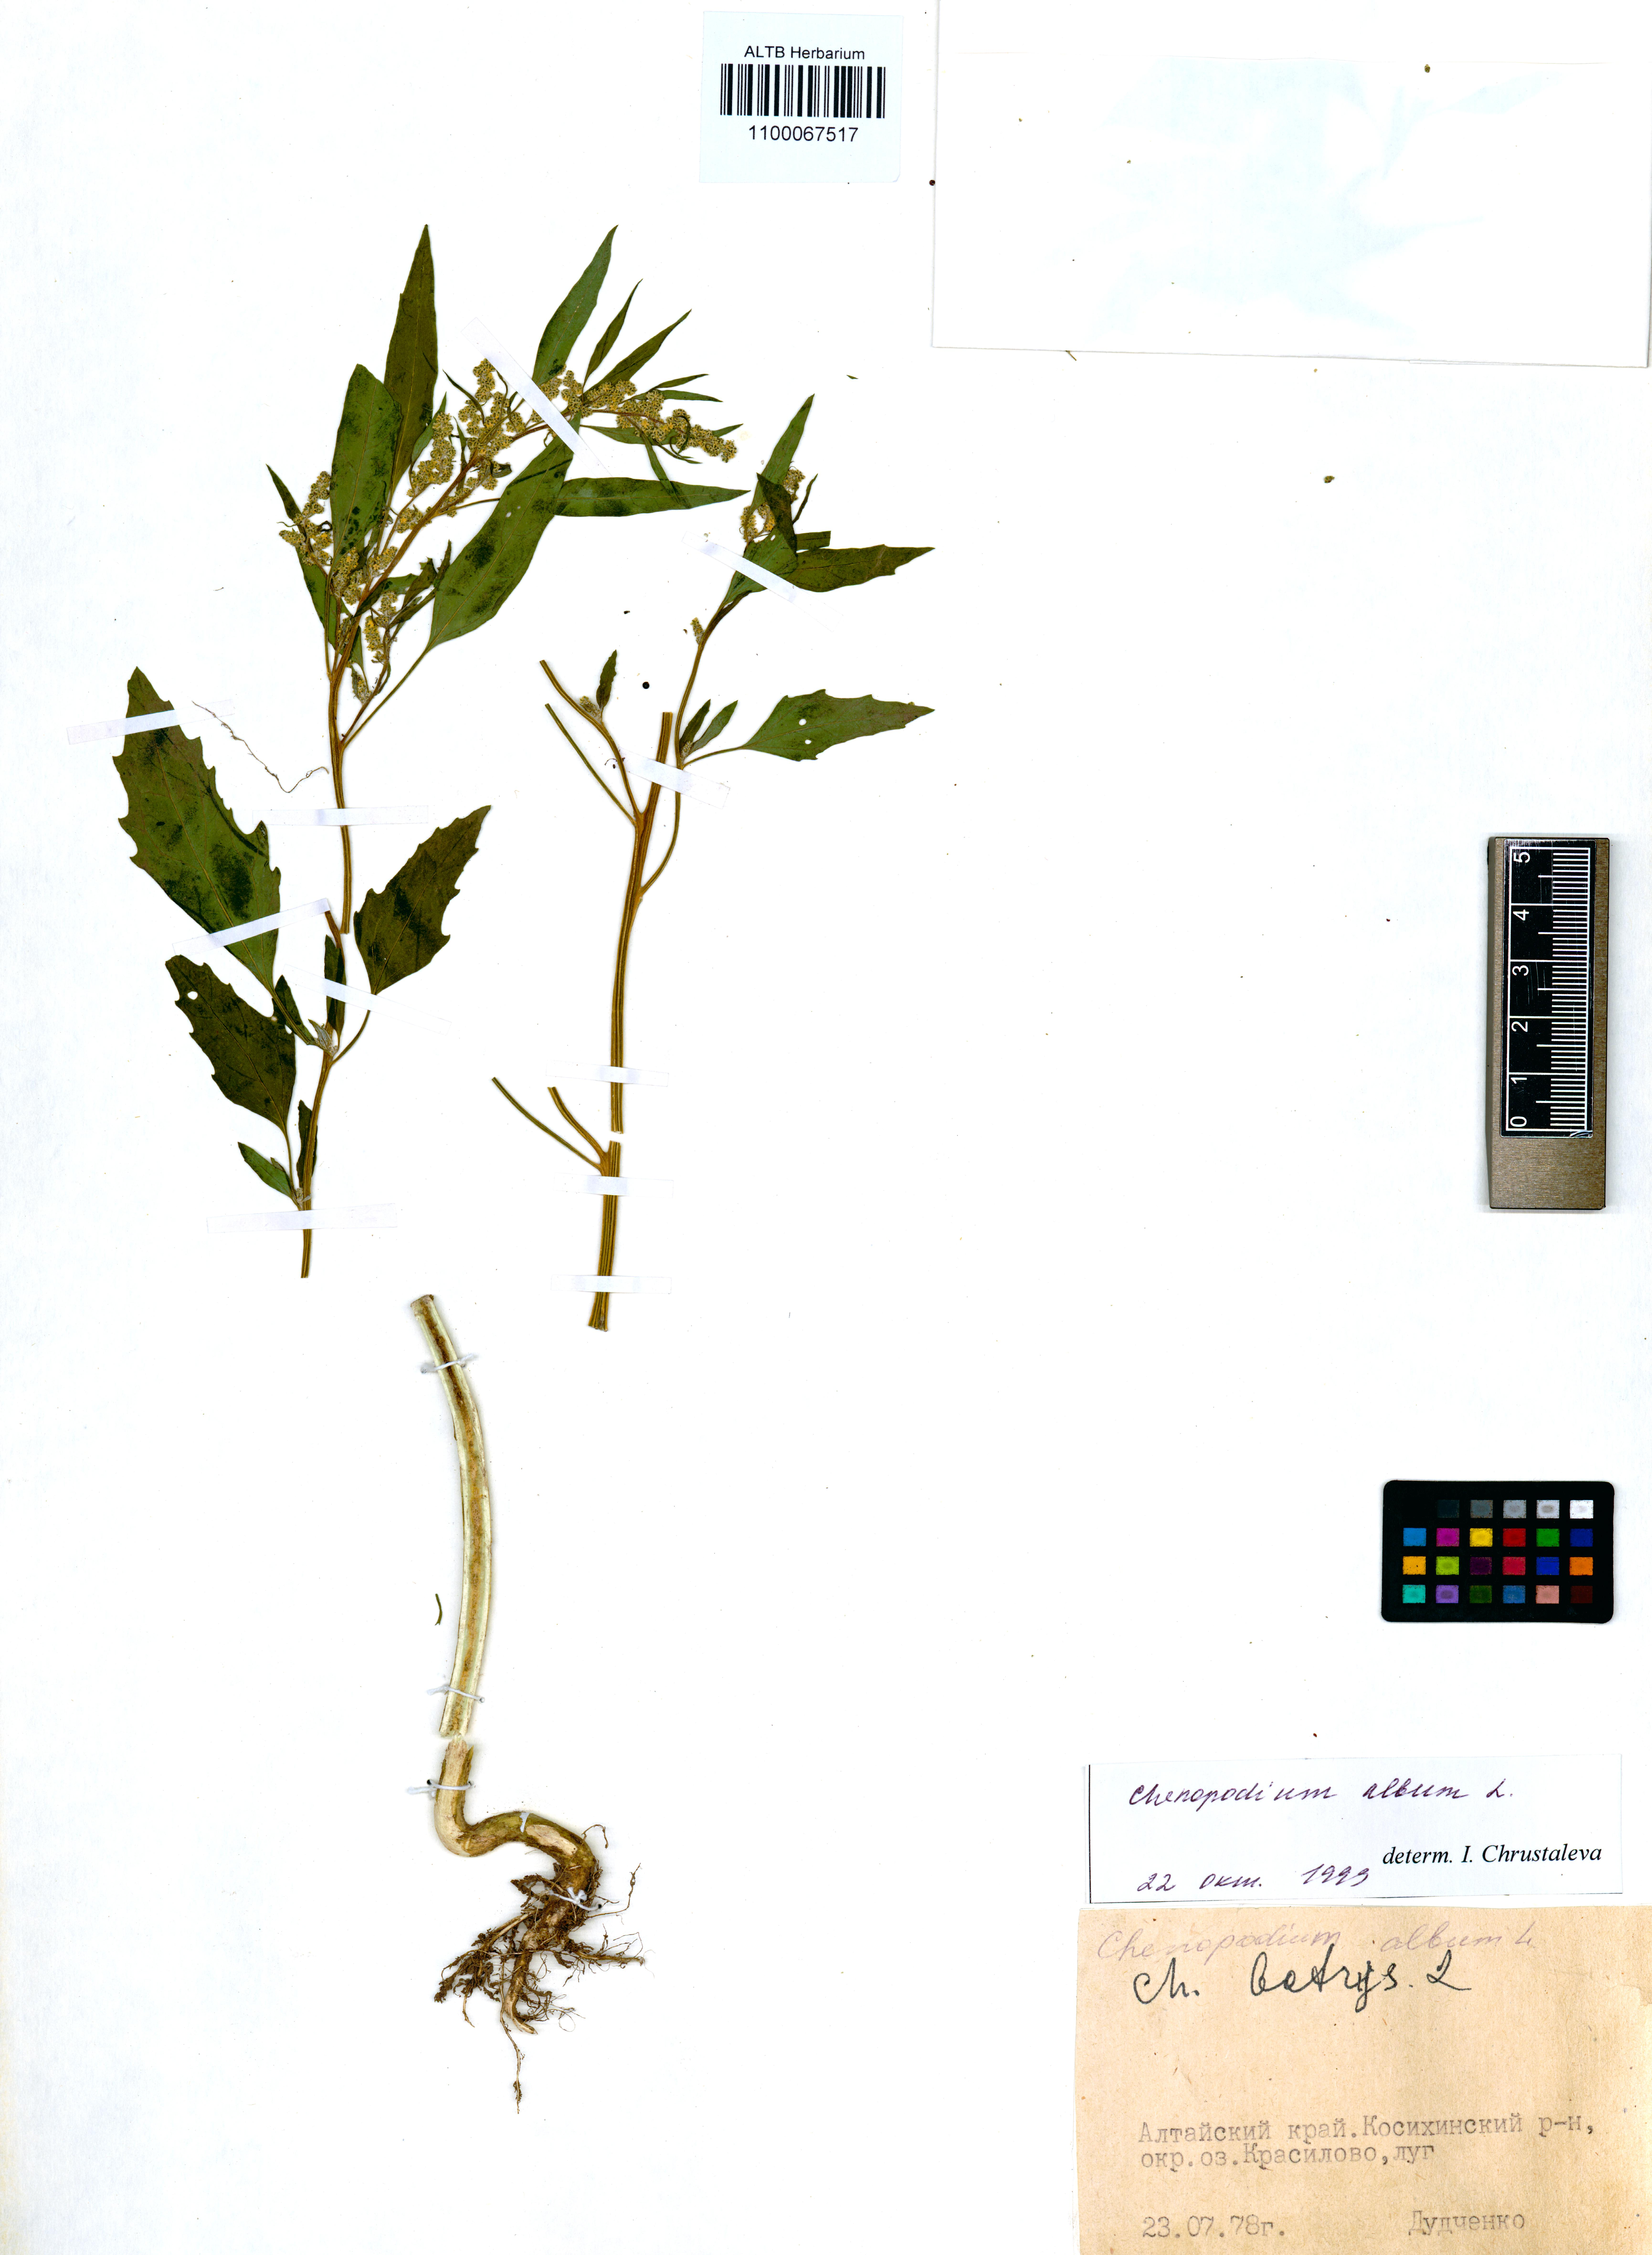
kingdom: Plantae
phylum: Tracheophyta
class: Magnoliopsida
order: Caryophyllales
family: Amaranthaceae
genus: Chenopodium
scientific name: Chenopodium album
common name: Fat-hen
